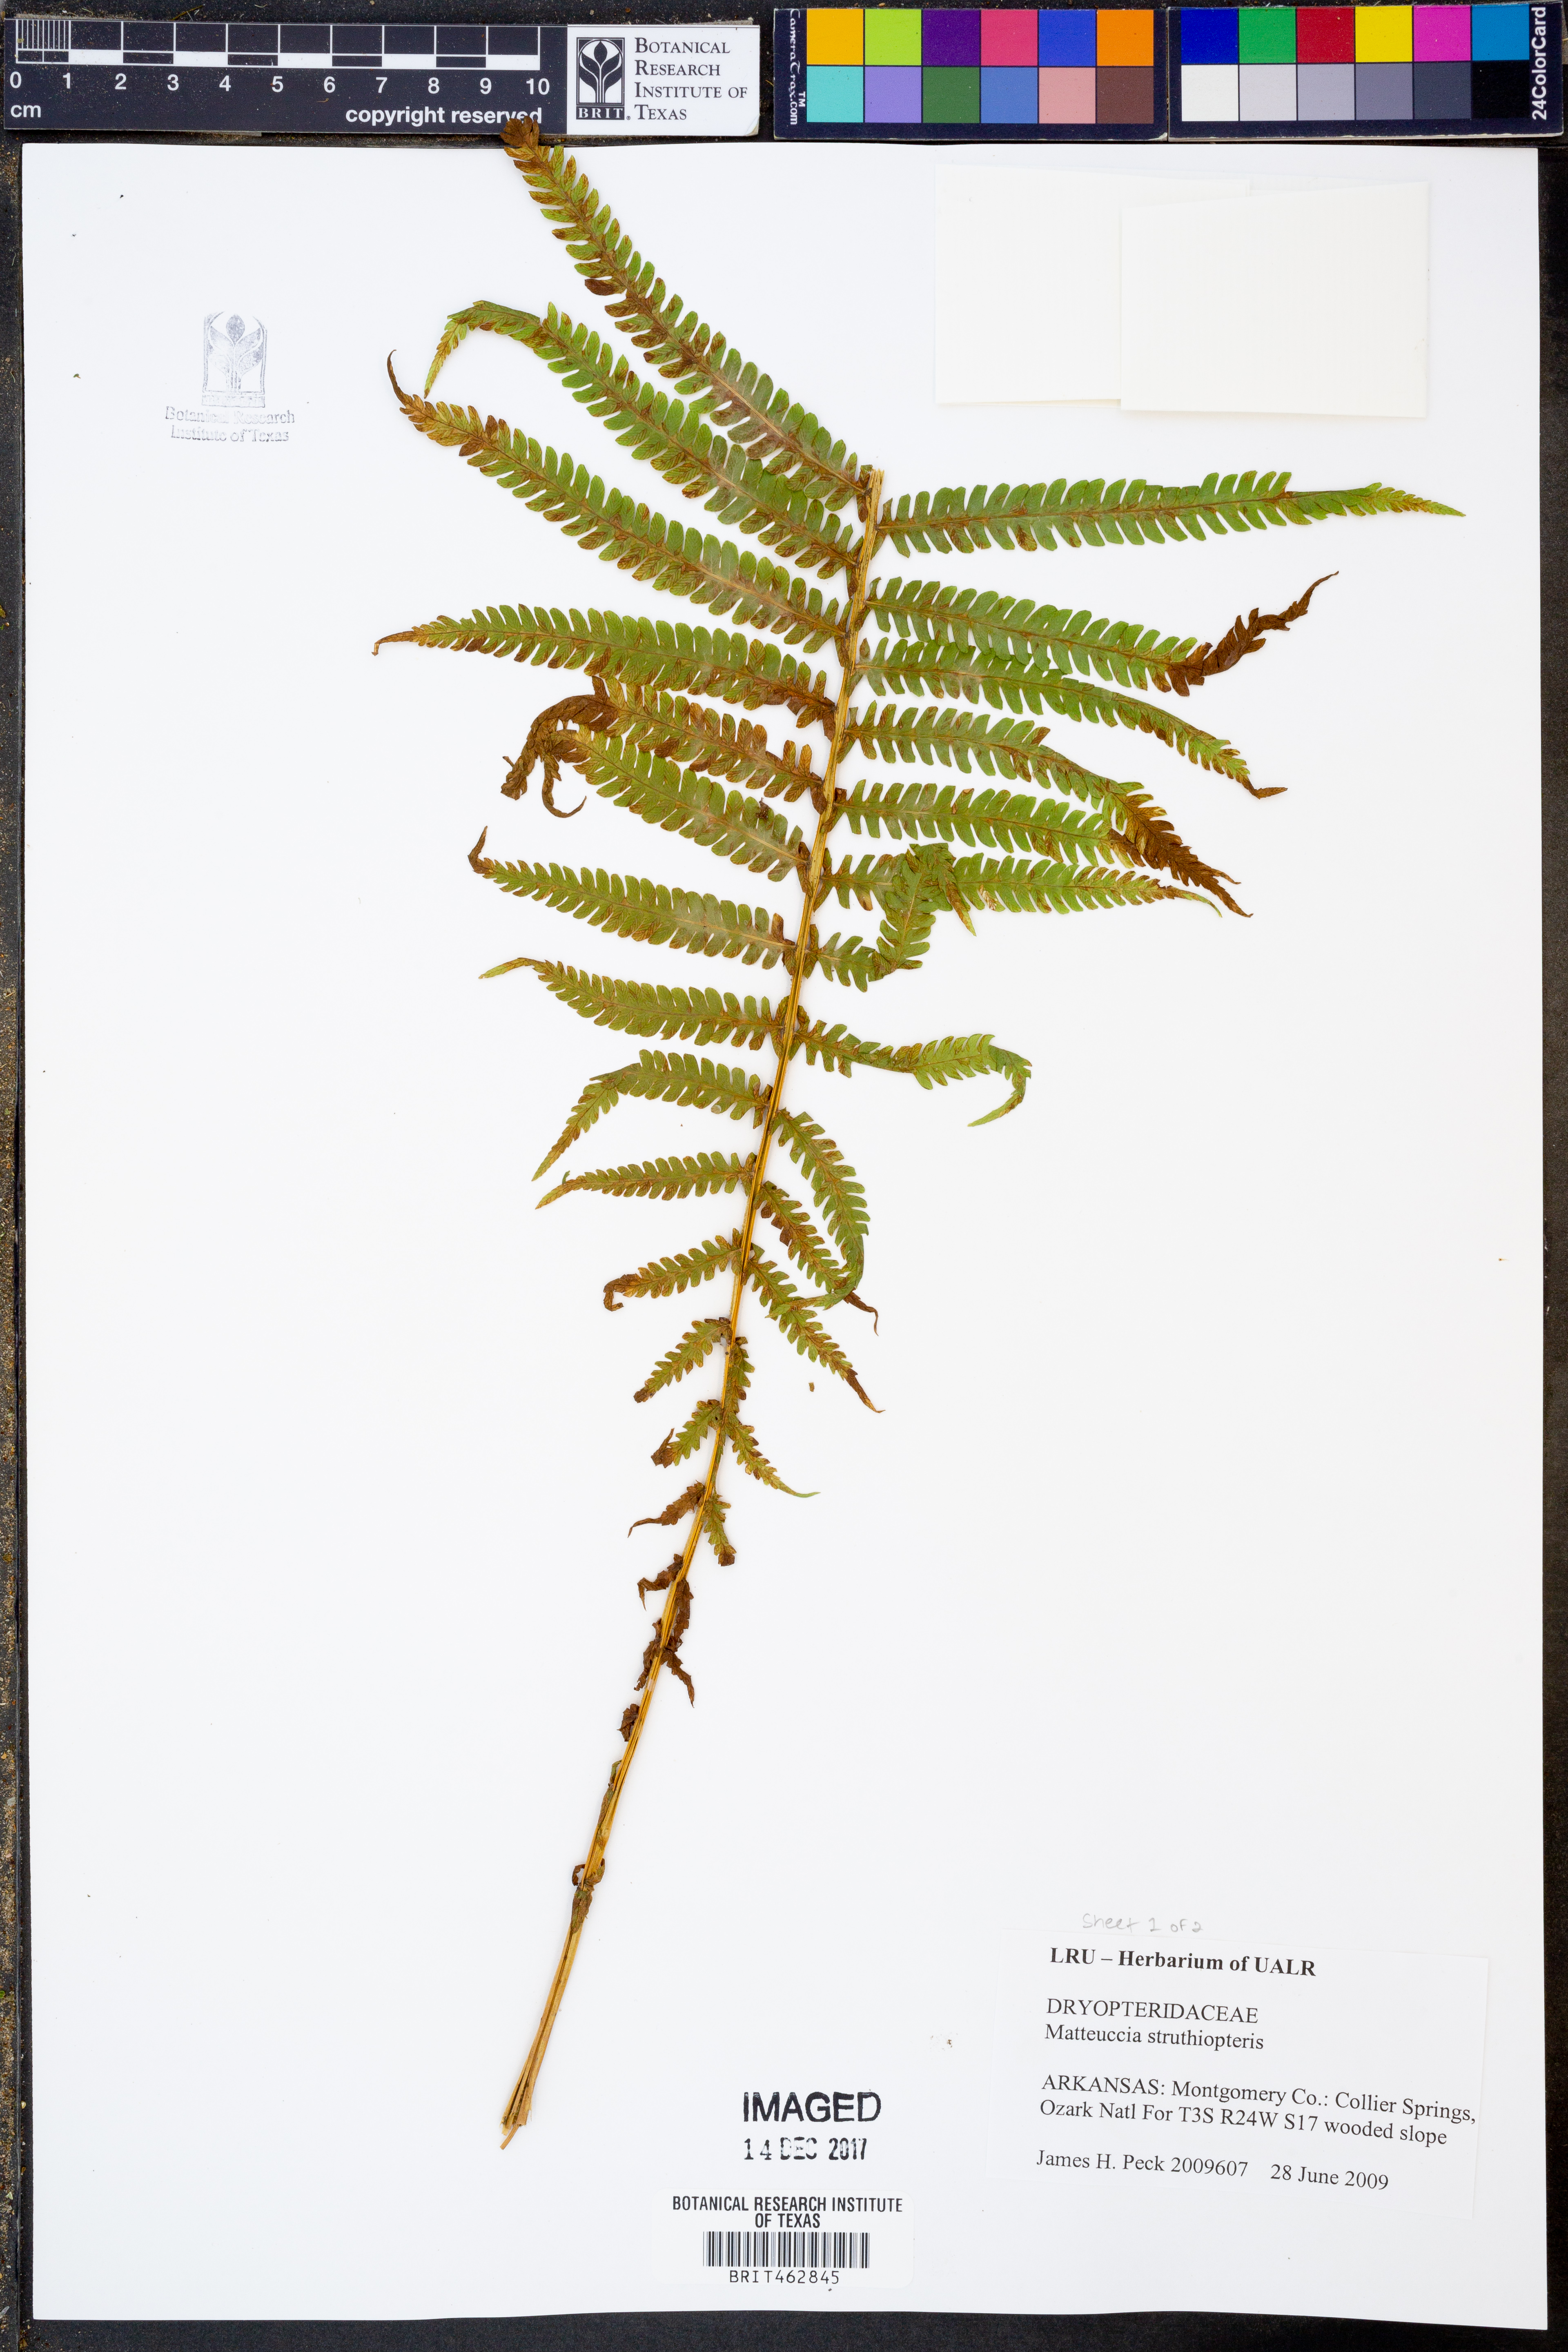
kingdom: Plantae
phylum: Tracheophyta
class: Polypodiopsida
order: Polypodiales
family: Onocleaceae
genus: Matteuccia
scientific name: Matteuccia struthiopteris
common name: Ostrich fern
